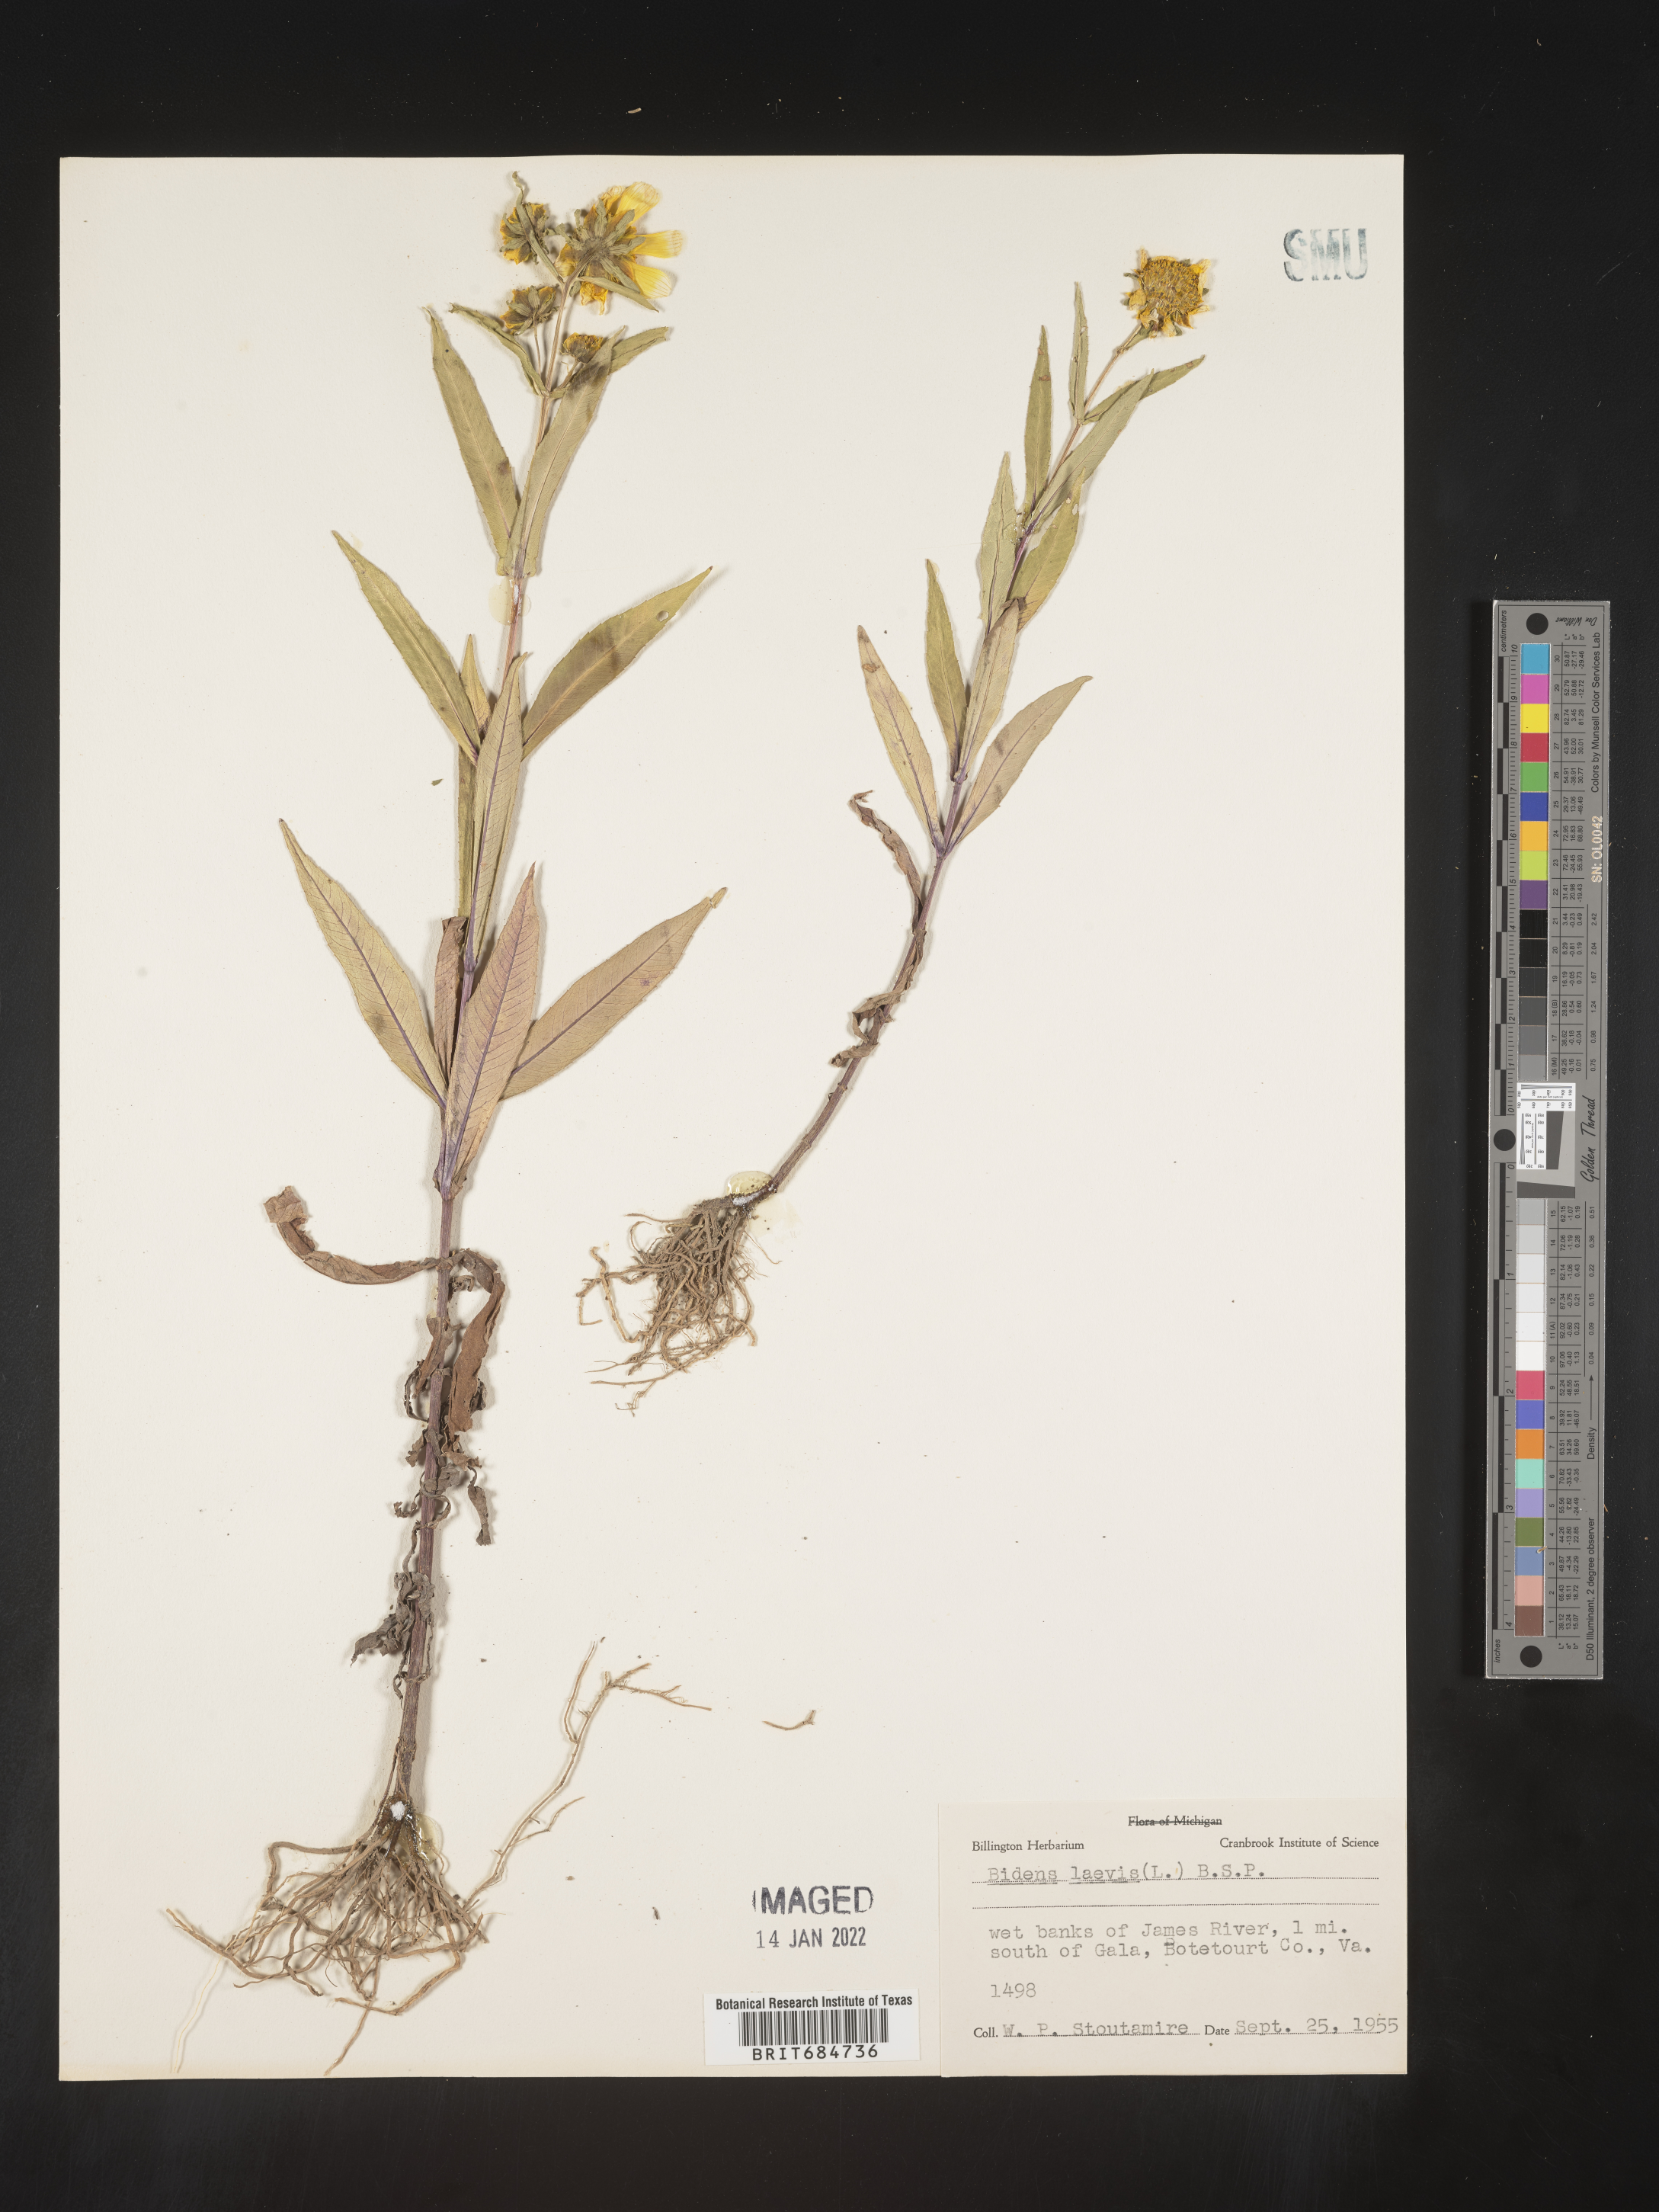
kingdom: Plantae
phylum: Tracheophyta
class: Magnoliopsida
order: Asterales
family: Asteraceae
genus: Bidens
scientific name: Bidens laevis
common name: Larger bur-marigold
